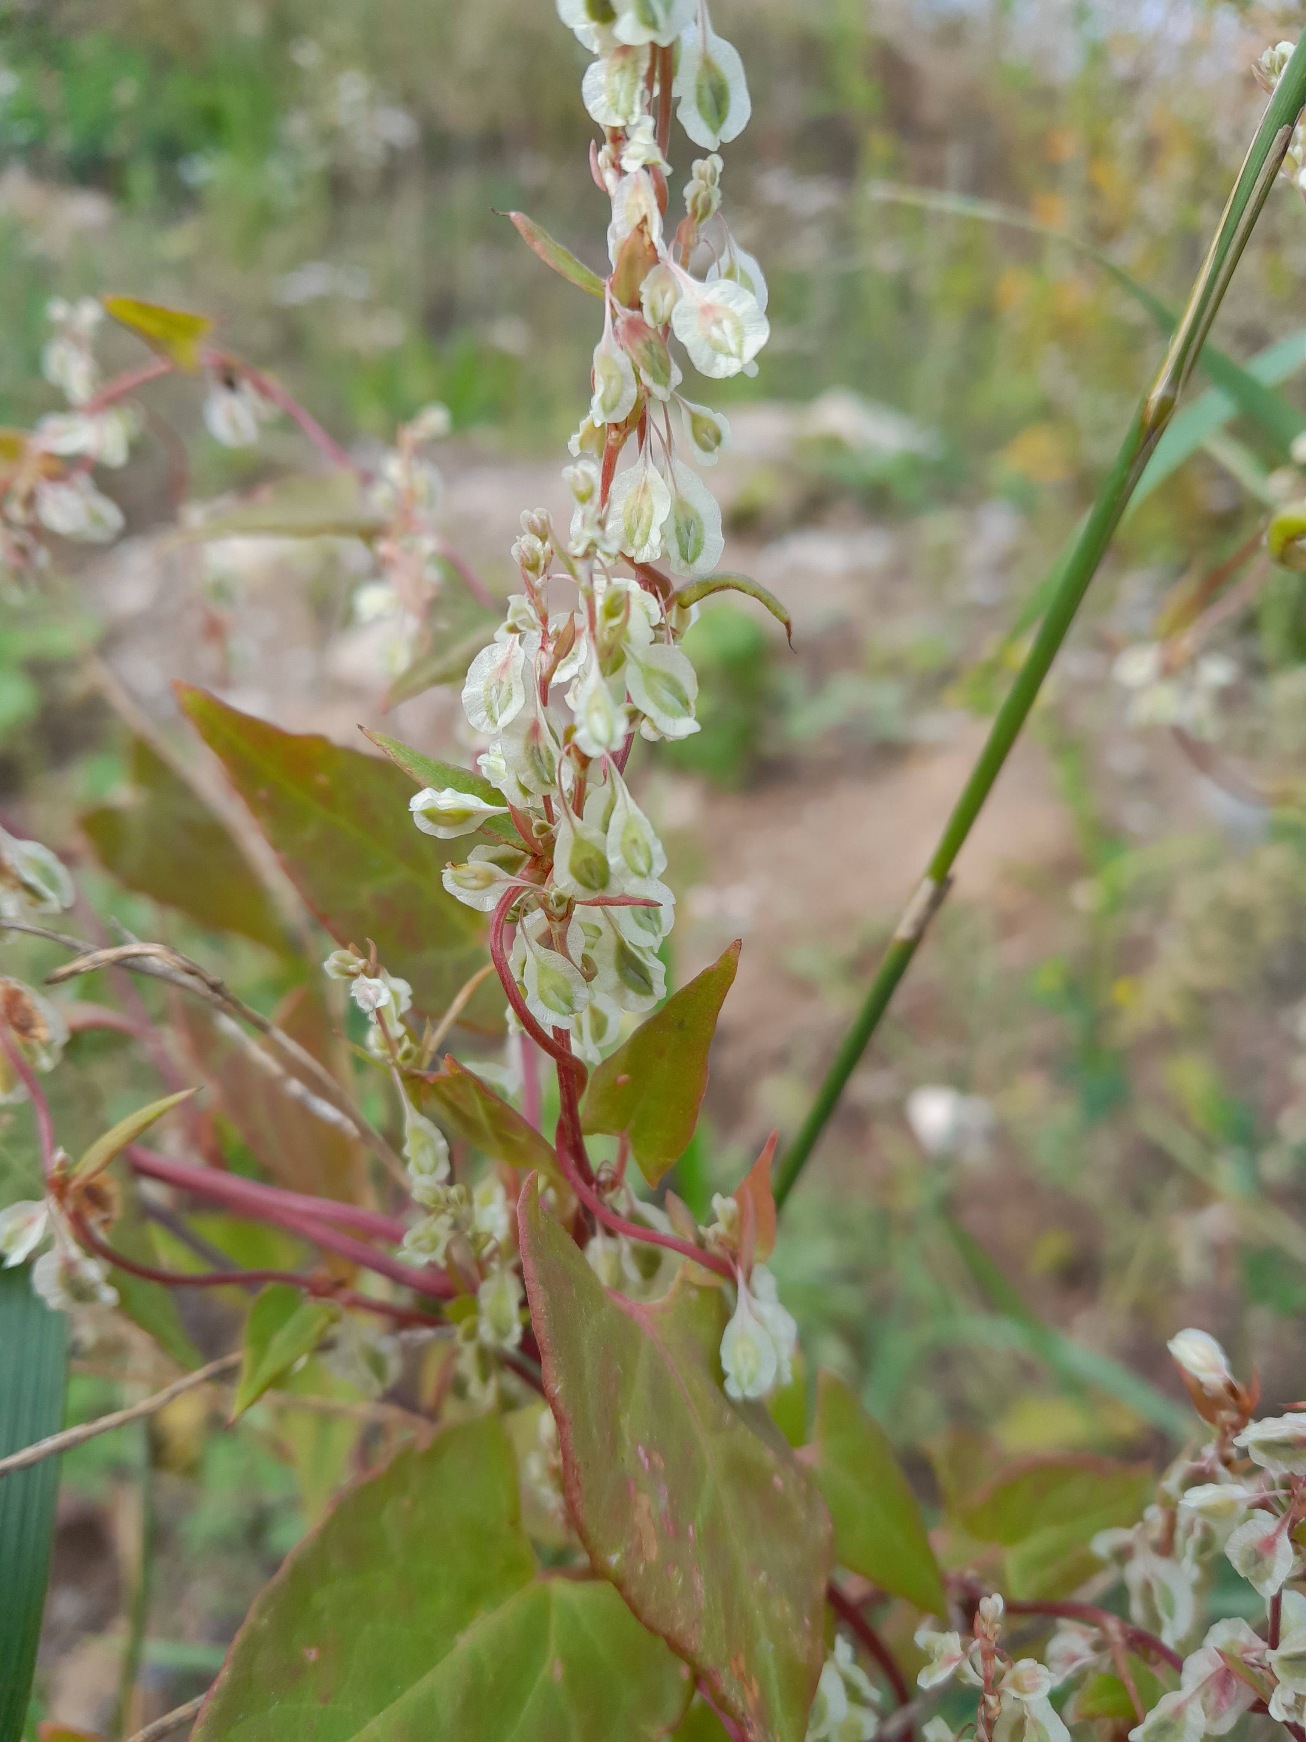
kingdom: Plantae
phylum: Tracheophyta
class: Magnoliopsida
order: Caryophyllales
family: Polygonaceae
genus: Fallopia
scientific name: Fallopia dumetorum
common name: Vinge-pileurt
